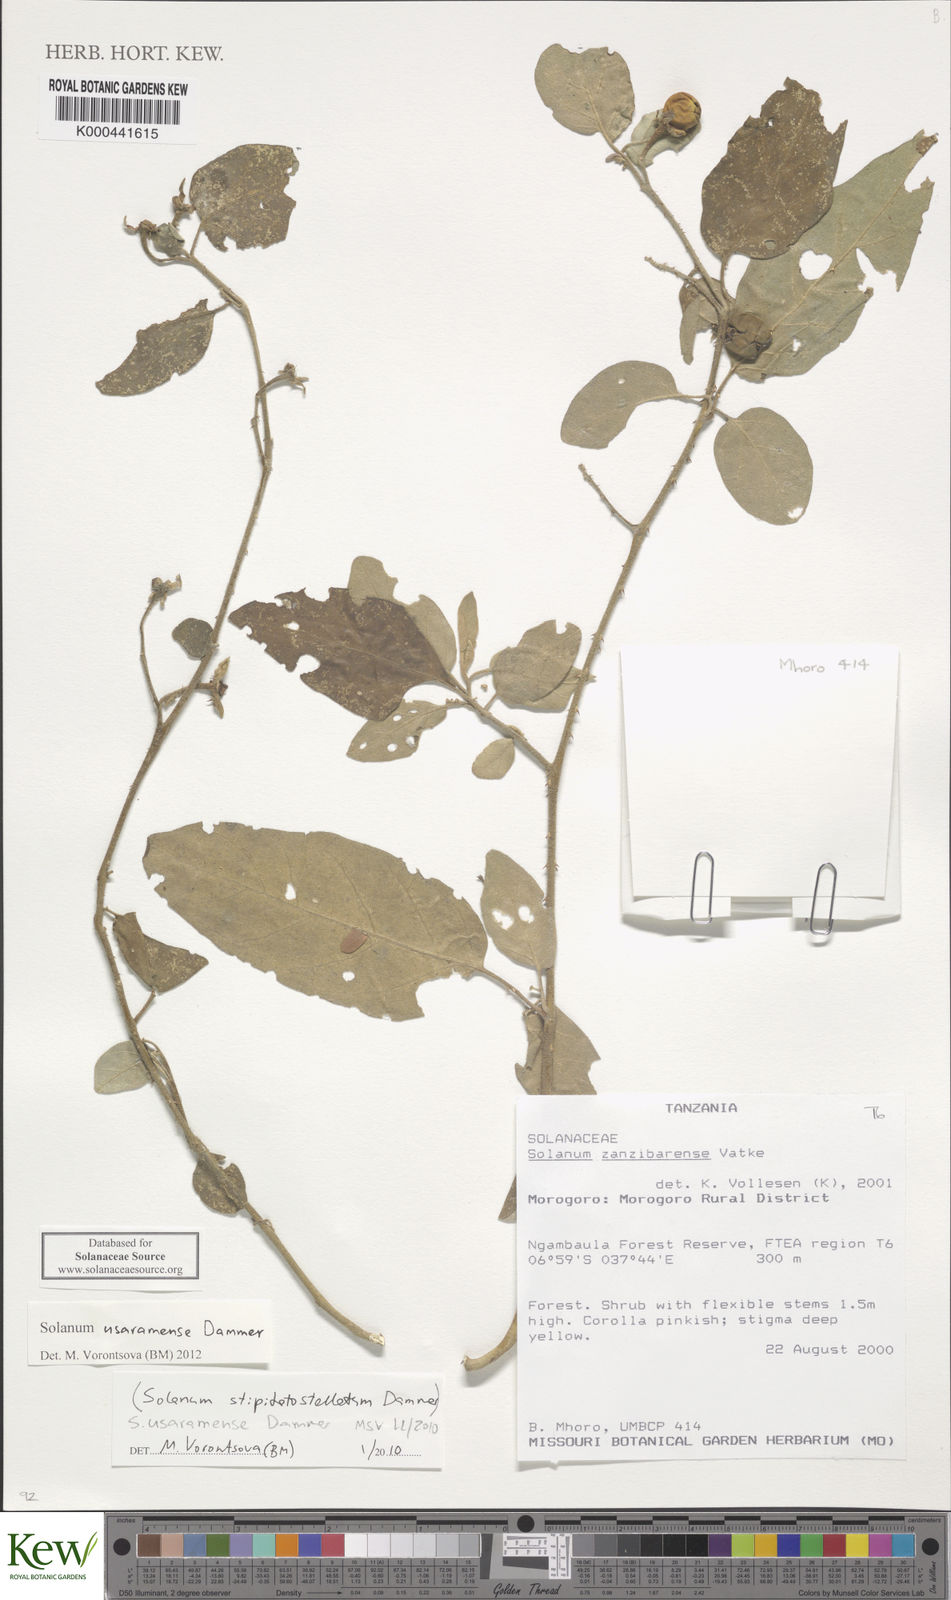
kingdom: Plantae
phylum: Tracheophyta
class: Magnoliopsida
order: Solanales
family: Solanaceae
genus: Solanum
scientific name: Solanum stipitatostellatum
